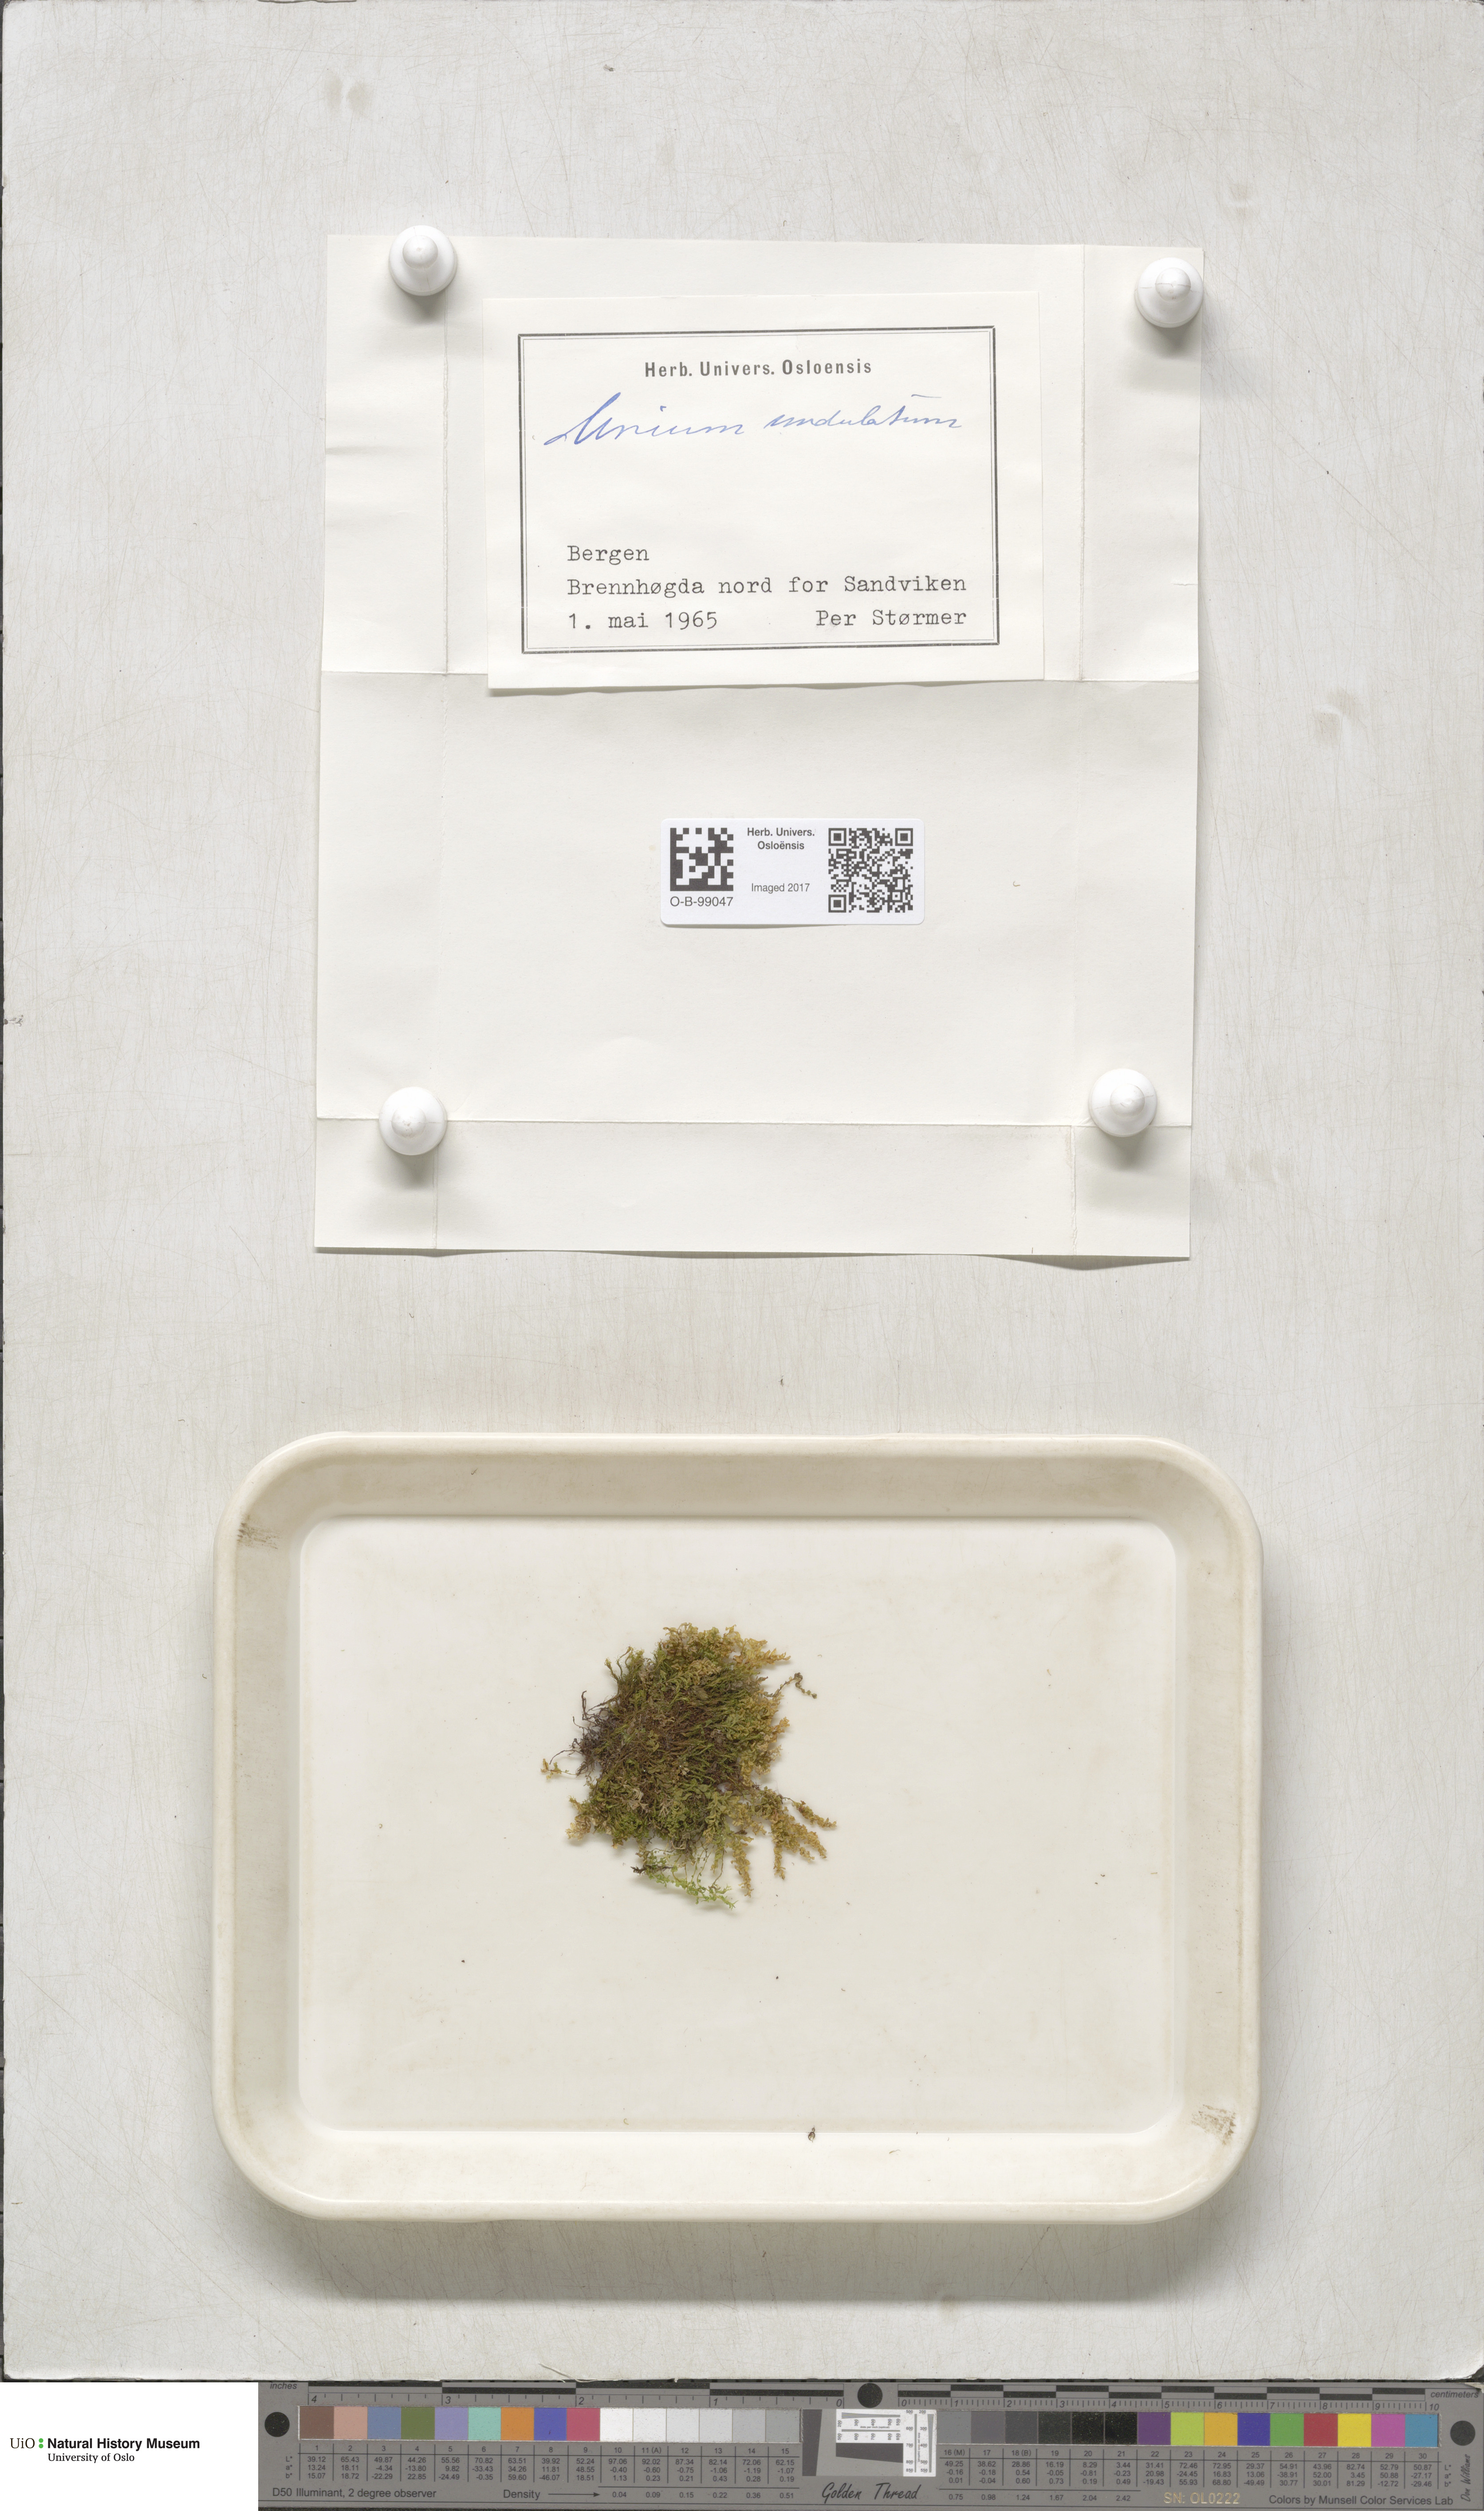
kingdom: Plantae
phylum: Bryophyta
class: Bryopsida
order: Bryales
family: Mniaceae
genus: Plagiomnium
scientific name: Plagiomnium undulatum
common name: Hart's-tongue thyme-moss
